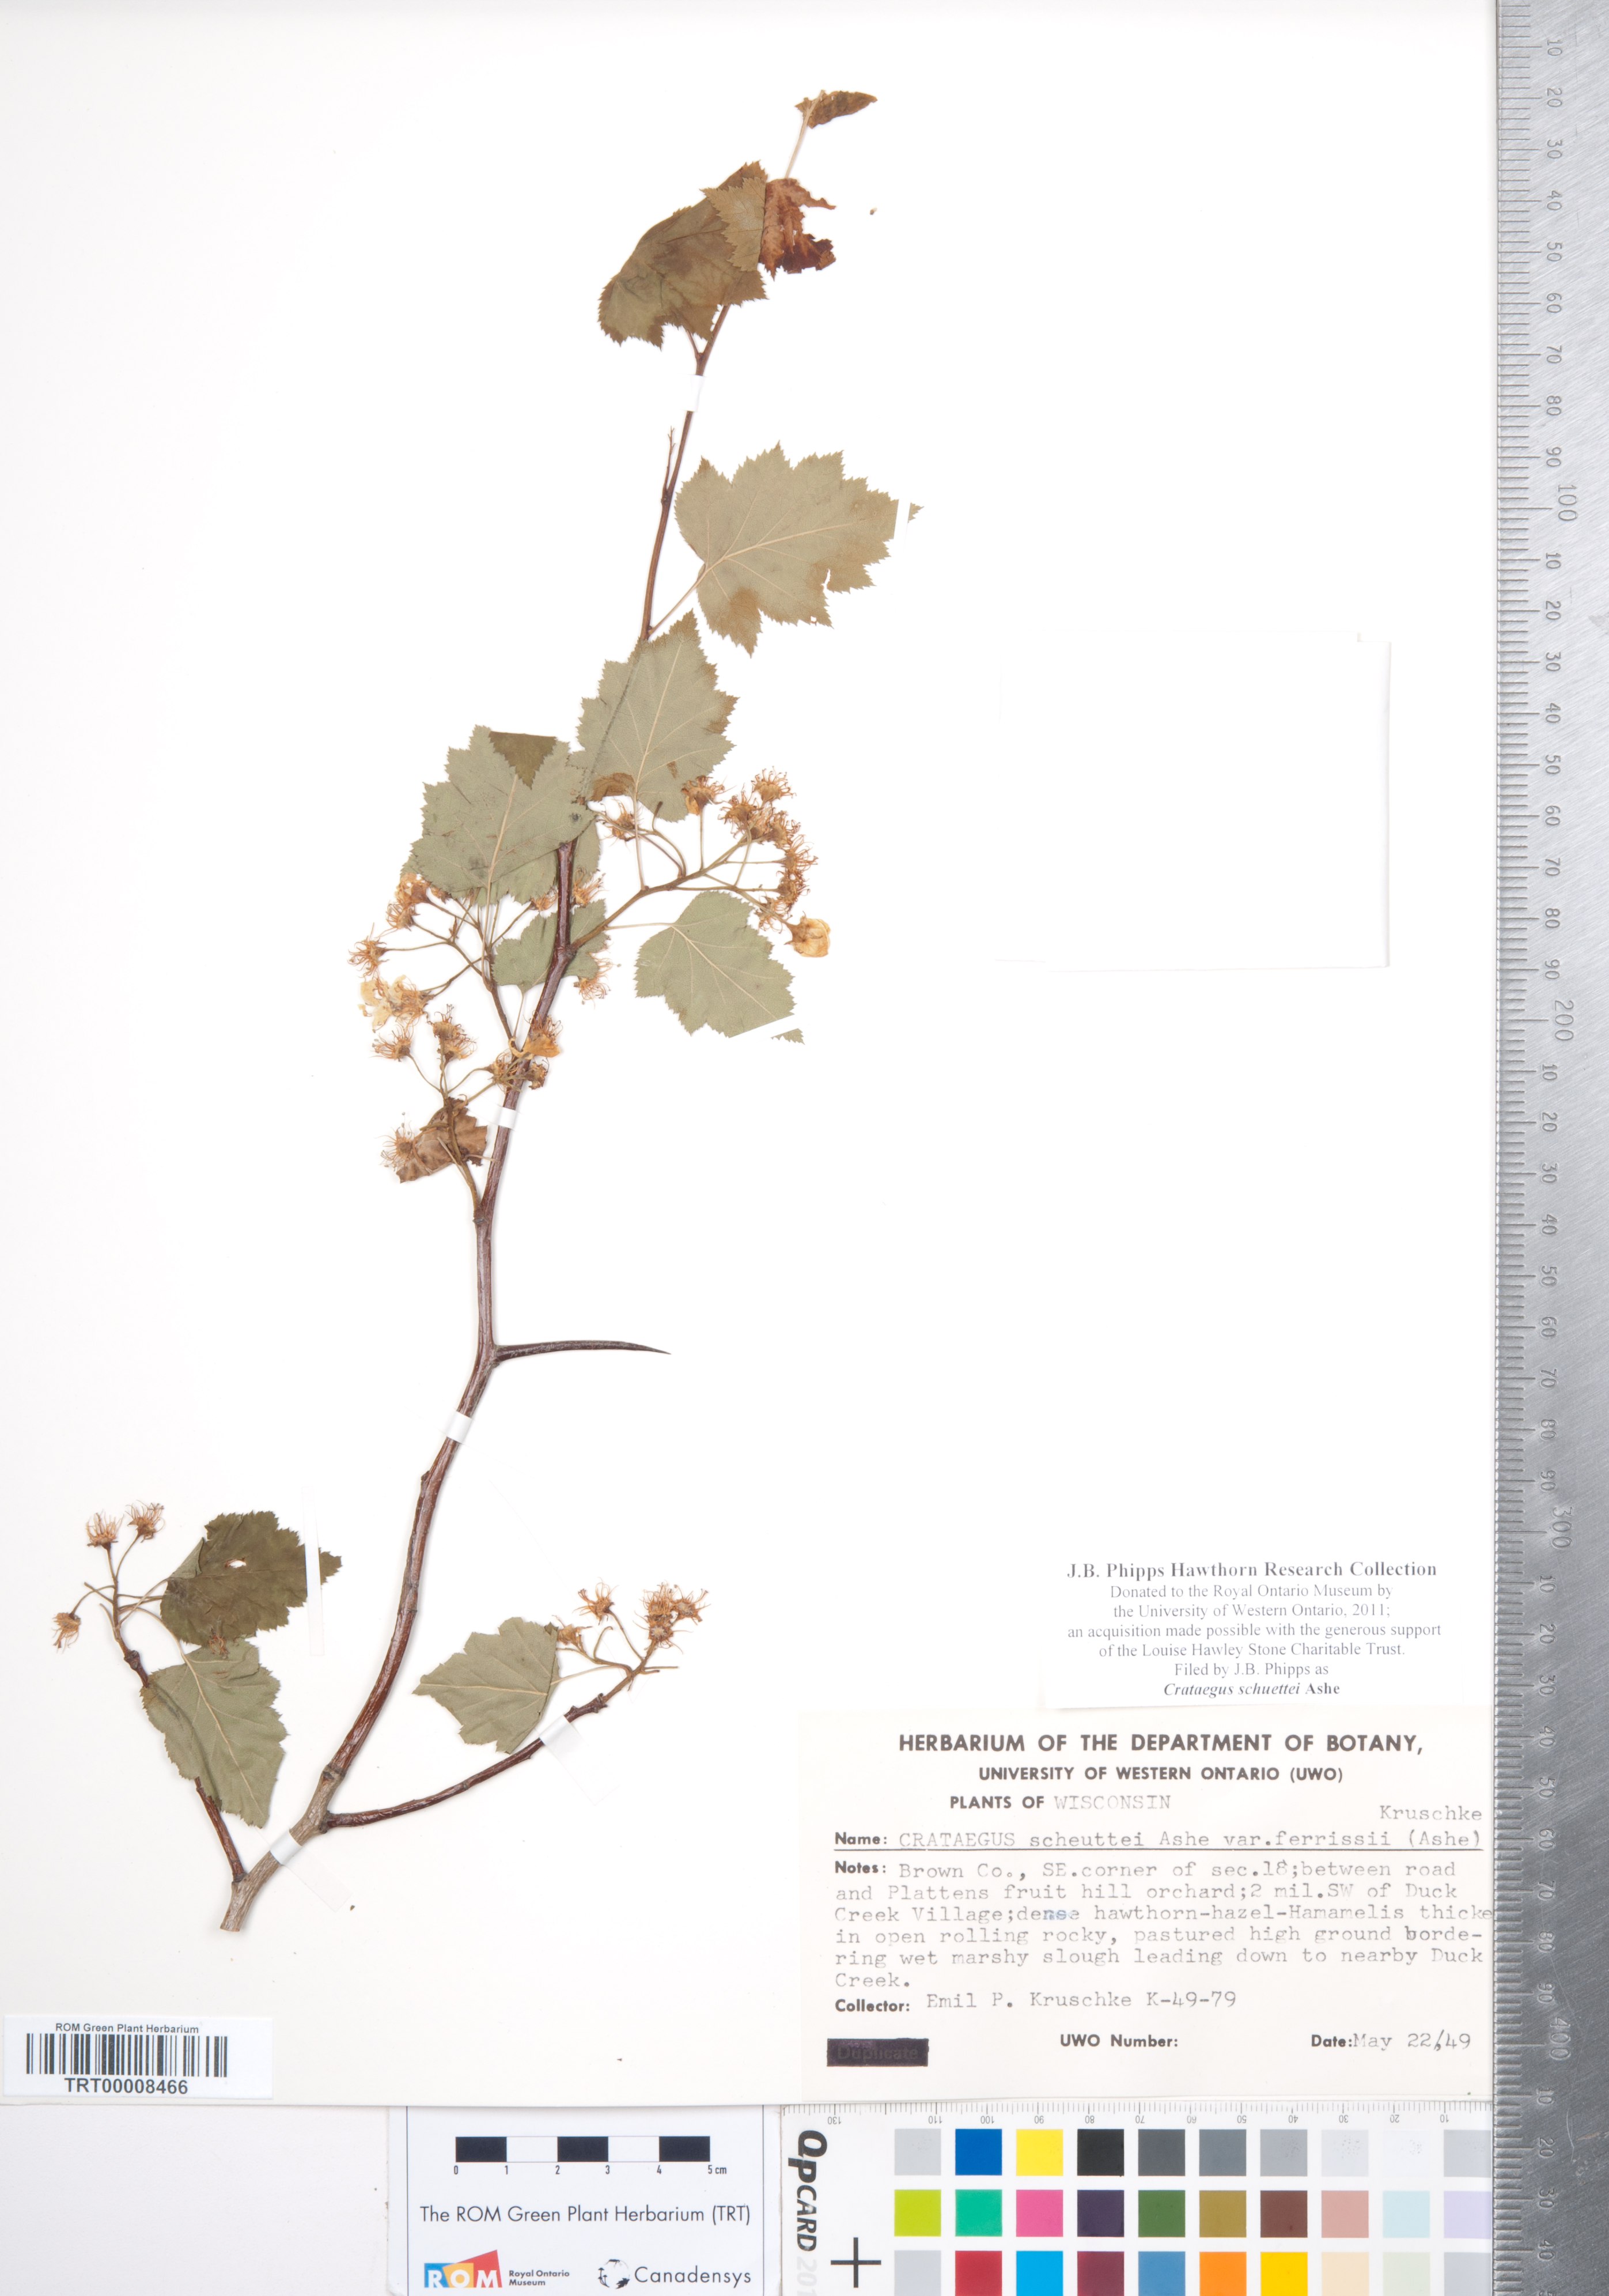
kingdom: Plantae
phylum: Tracheophyta
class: Magnoliopsida
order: Rosales
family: Rosaceae
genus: Crataegus
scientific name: Crataegus schuettei
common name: Schuette's hawthorn
